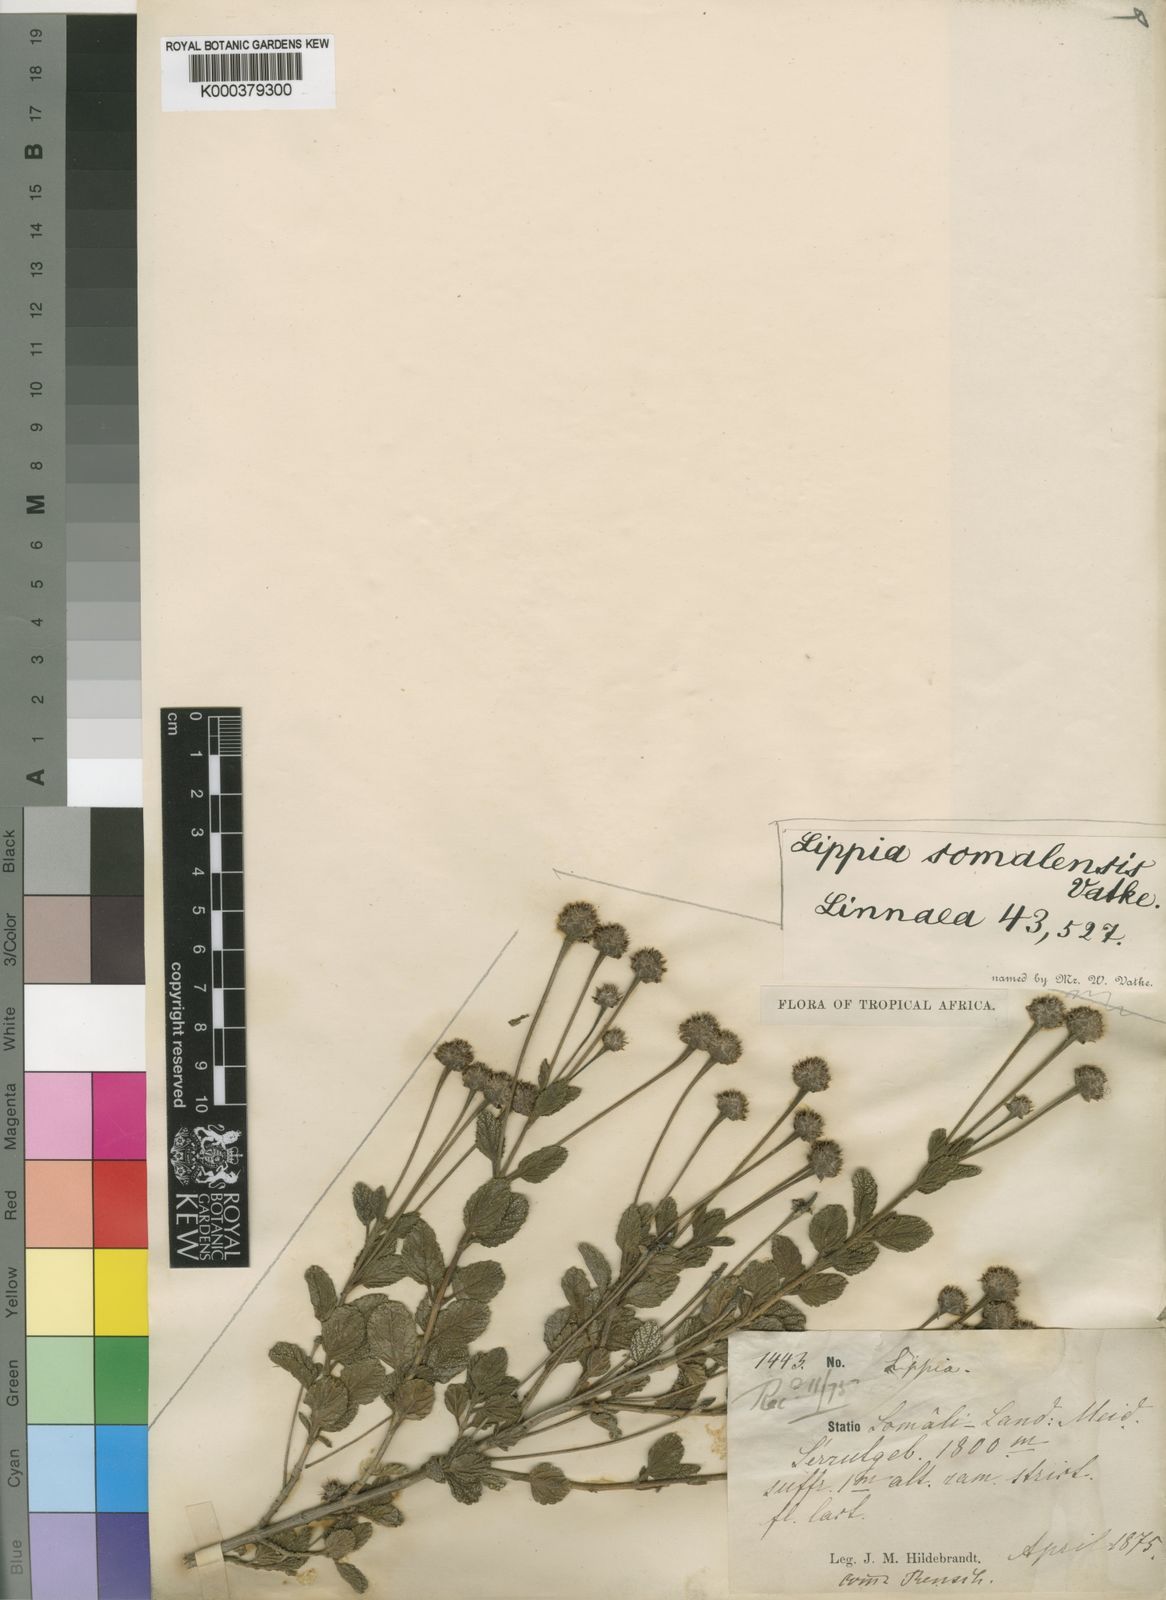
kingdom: Plantae
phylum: Tracheophyta
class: Magnoliopsida
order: Lamiales
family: Verbenaceae
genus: Lippia
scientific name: Lippia somalensis
